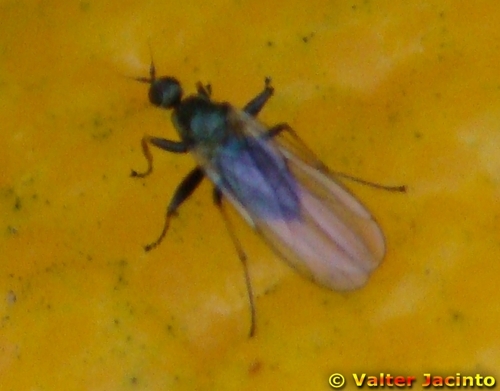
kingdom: Animalia
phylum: Arthropoda
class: Insecta
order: Diptera
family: Hybotidae
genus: Platypalpus
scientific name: Platypalpus
